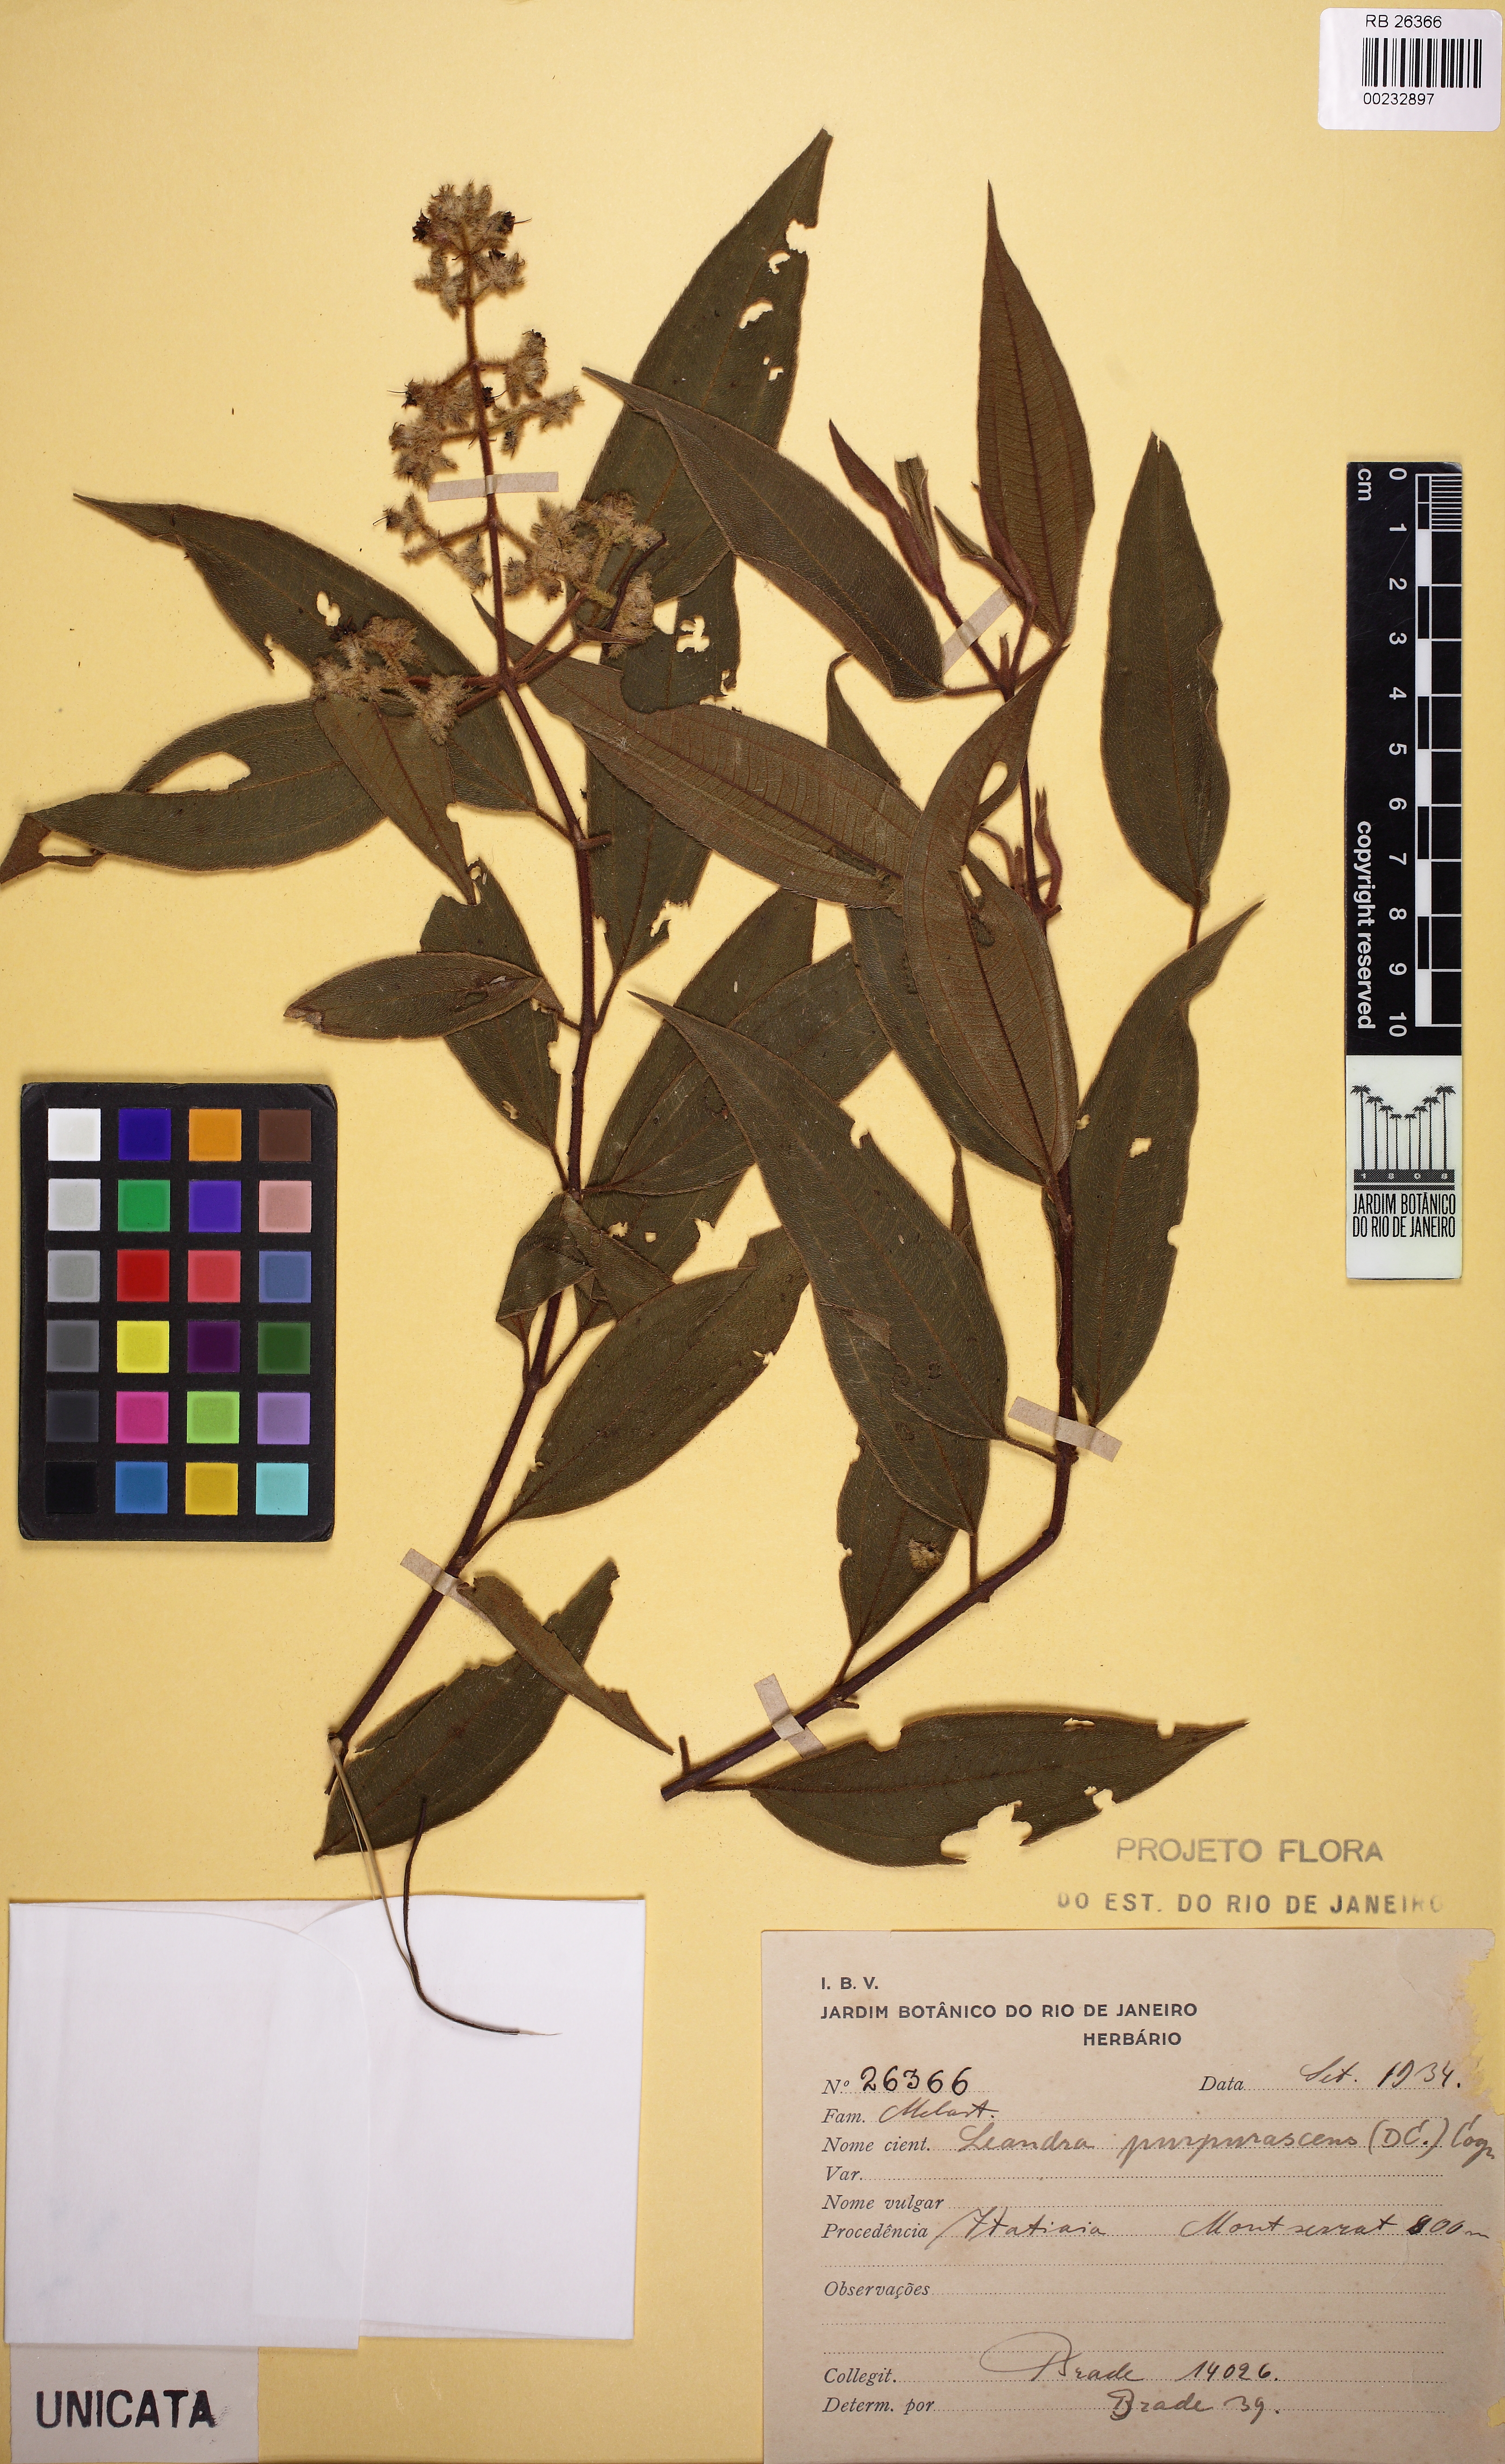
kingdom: Plantae
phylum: Tracheophyta
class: Magnoliopsida
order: Myrtales
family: Melastomataceae
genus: Miconia
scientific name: Miconia microstachya
